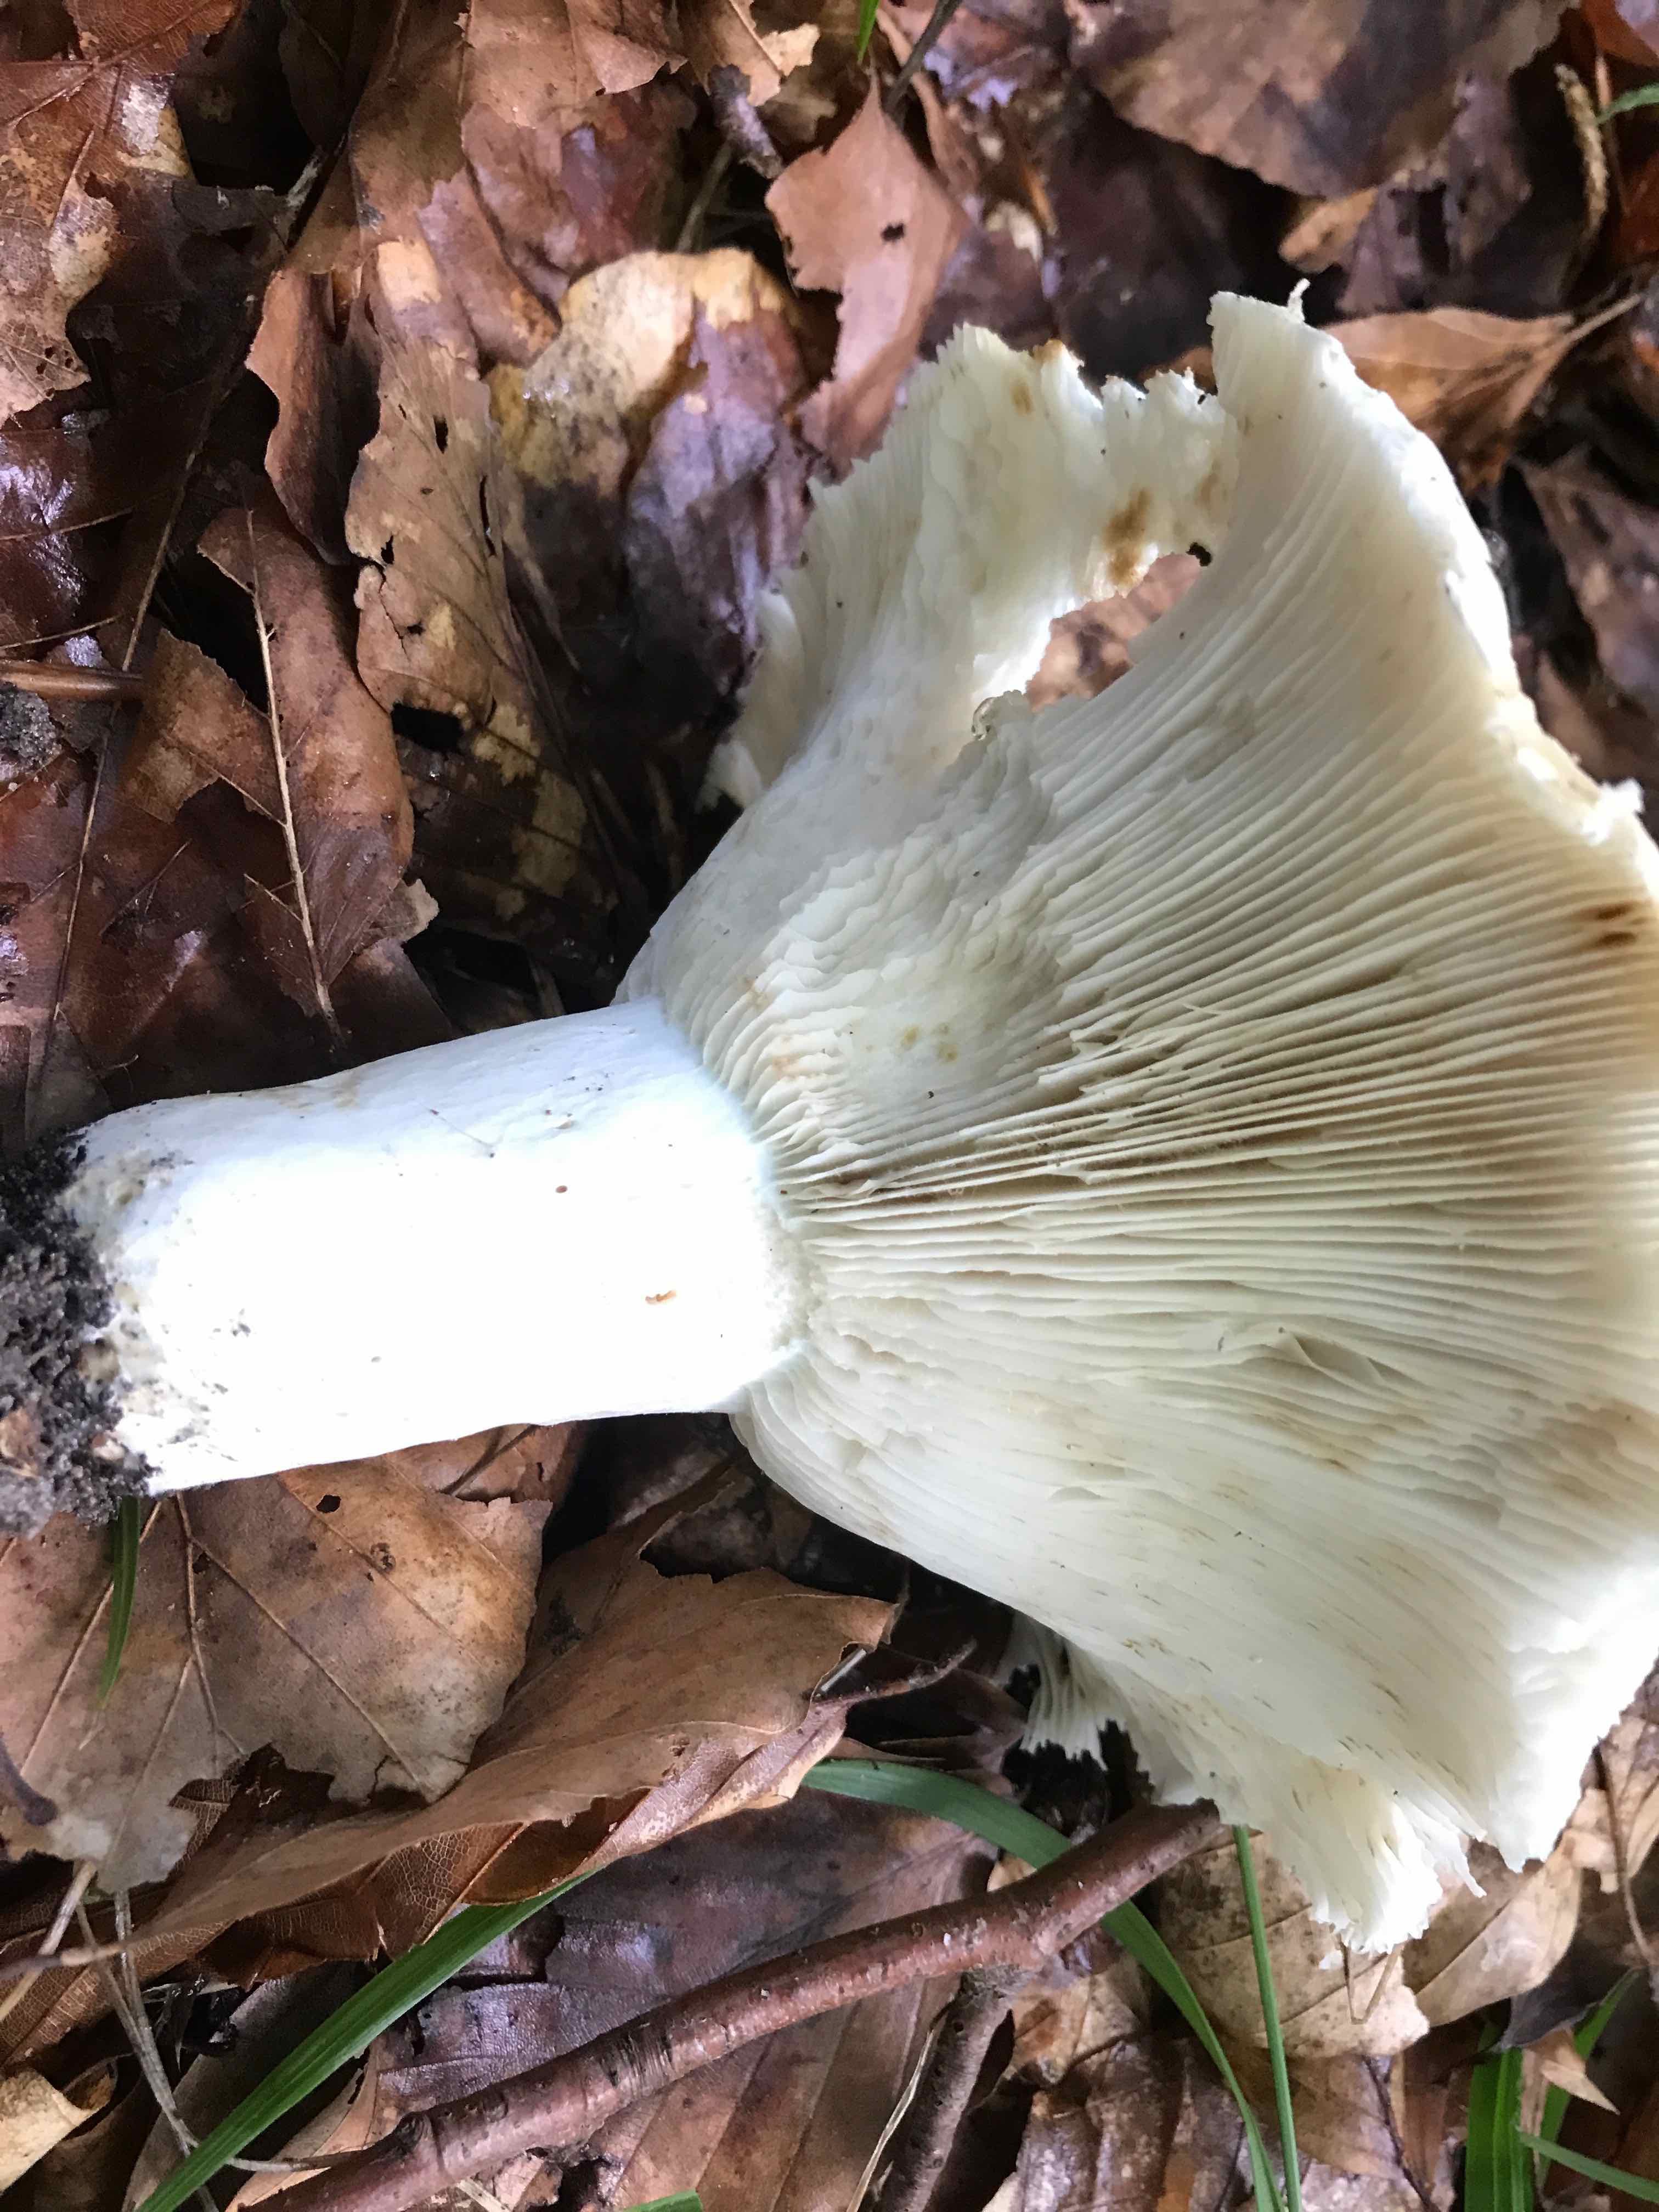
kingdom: Fungi
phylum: Basidiomycota
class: Agaricomycetes
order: Russulales
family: Russulaceae
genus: Russula
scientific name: Russula chloroides
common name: grønhalset tragt-skørhat
